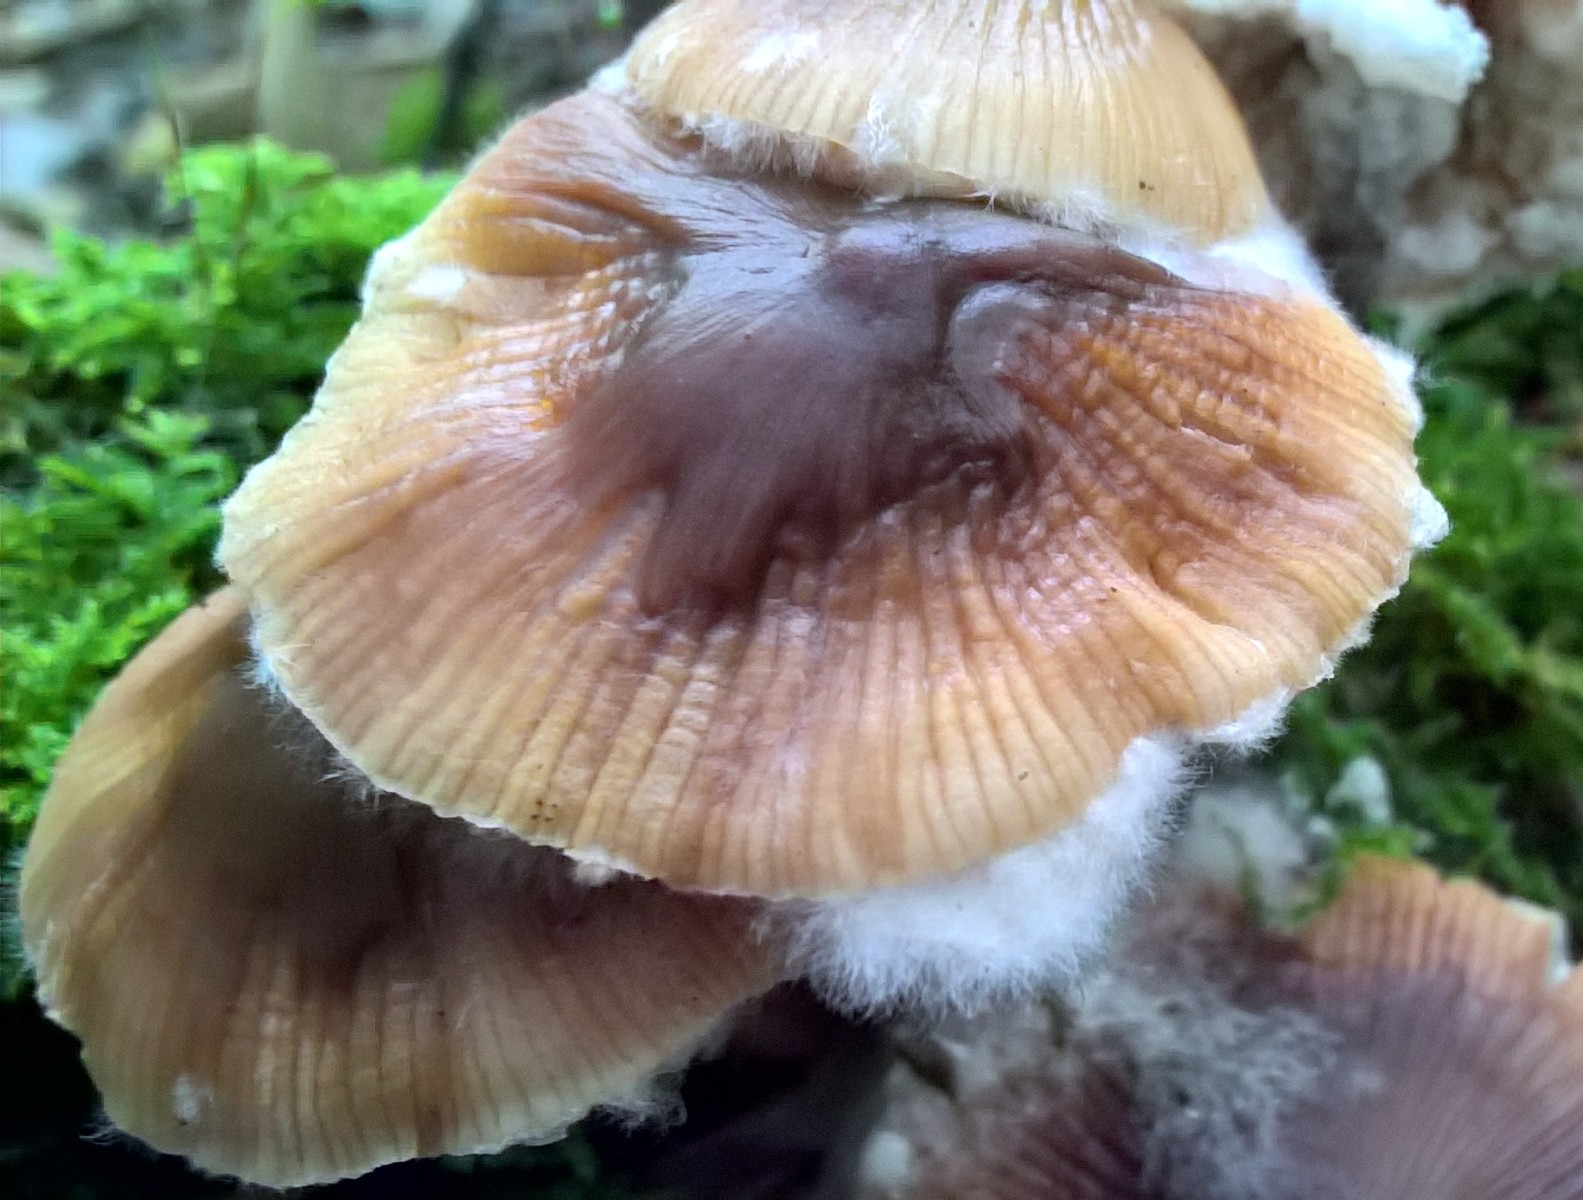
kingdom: Fungi
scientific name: Fungi
